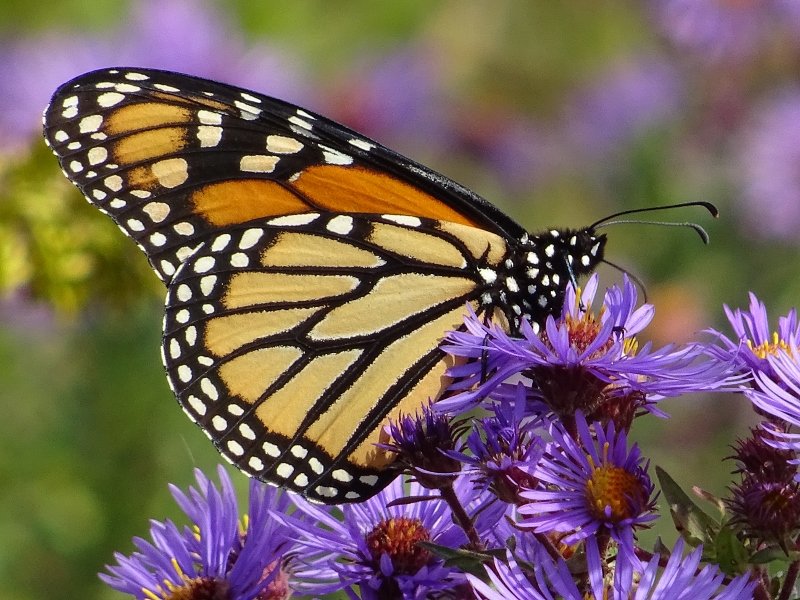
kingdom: Animalia
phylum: Arthropoda
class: Insecta
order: Lepidoptera
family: Nymphalidae
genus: Danaus
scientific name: Danaus plexippus
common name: Monarch
